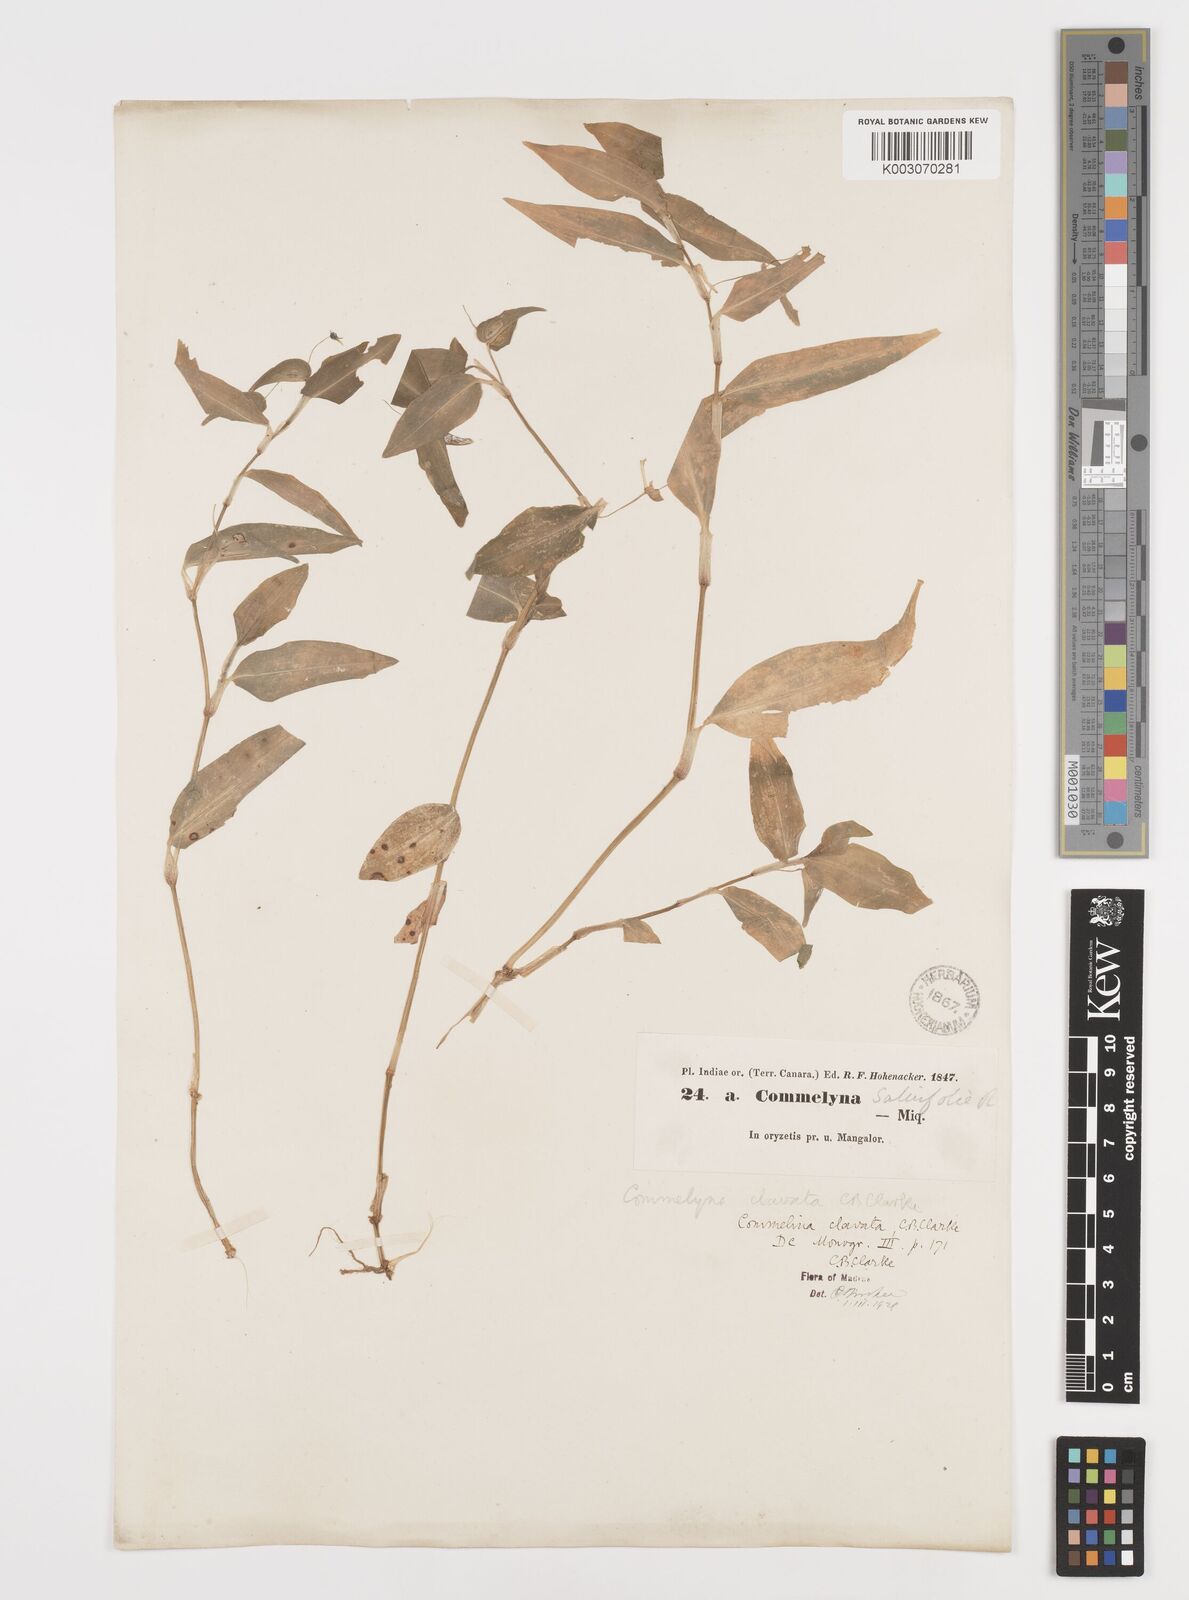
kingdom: Plantae
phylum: Tracheophyta
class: Liliopsida
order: Commelinales
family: Commelinaceae
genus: Commelina
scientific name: Commelina clavata
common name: Willow leaved dayflower
